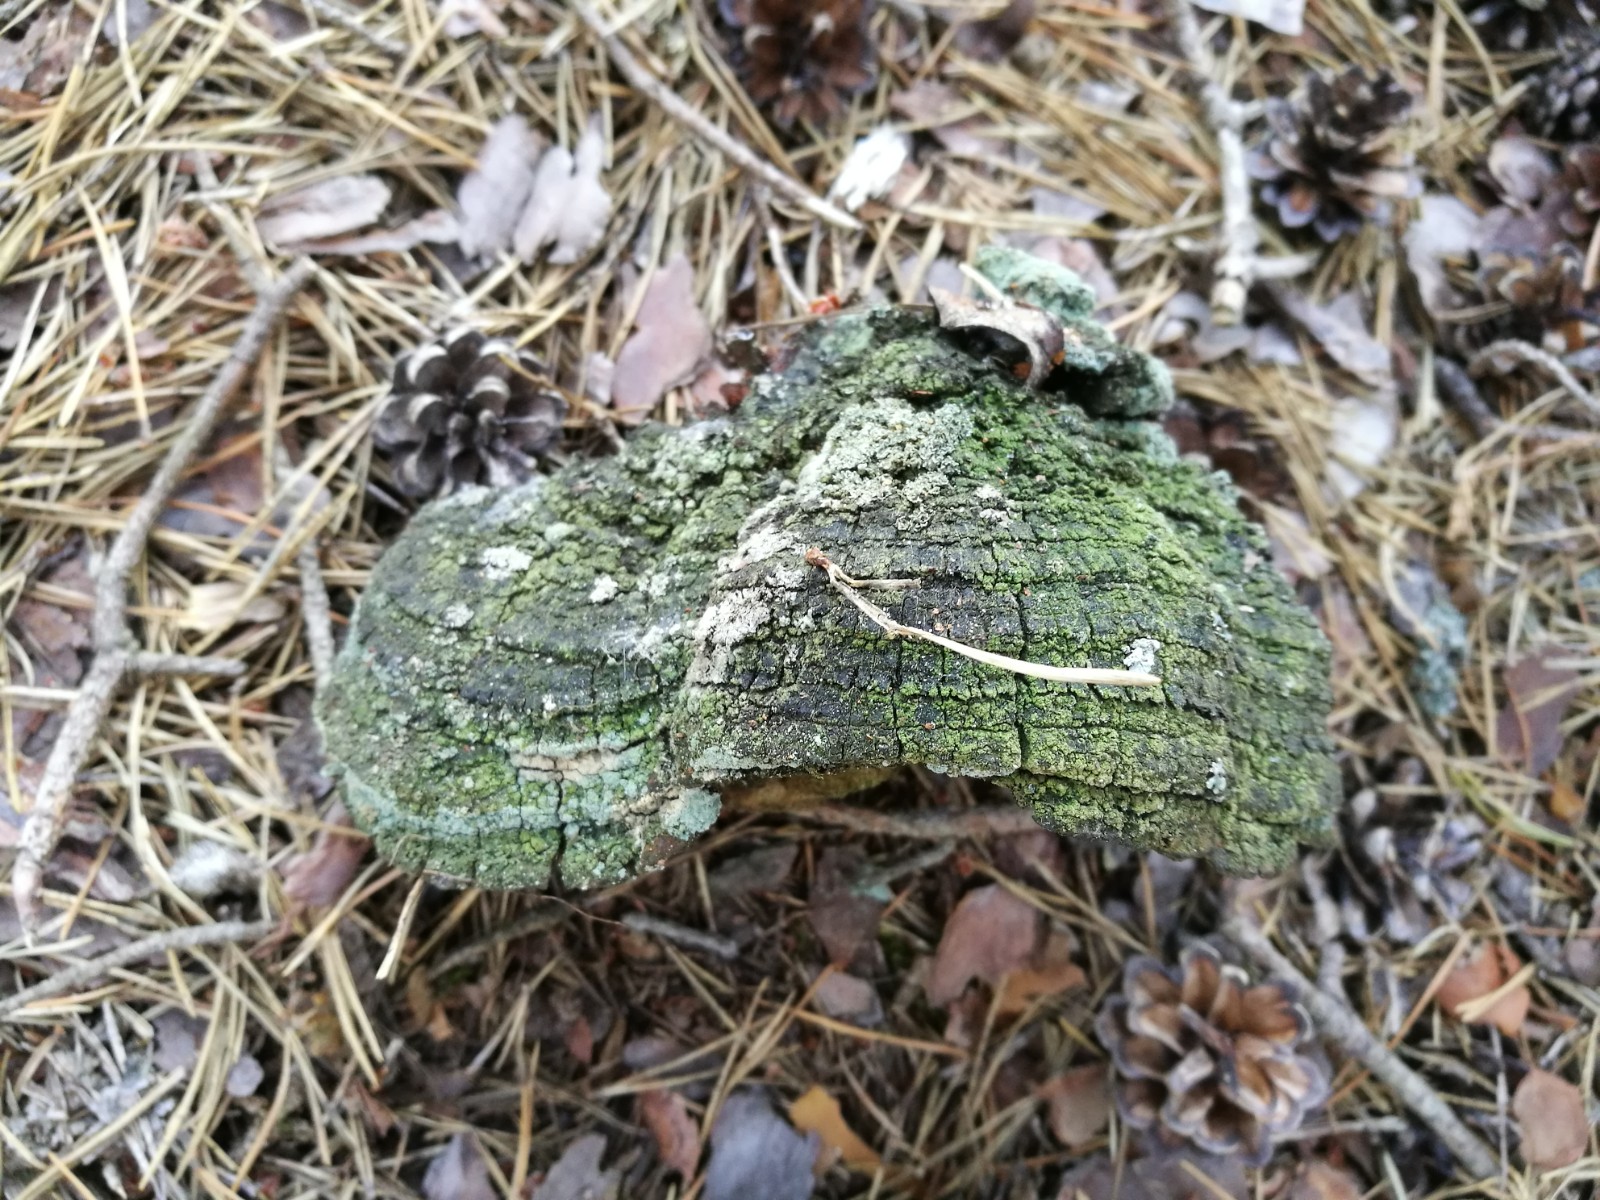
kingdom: Fungi
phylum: Basidiomycota
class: Agaricomycetes
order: Hymenochaetales
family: Hymenochaetaceae
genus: Porodaedalea
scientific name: Porodaedalea pini
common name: fyrre-ildporesvamp
